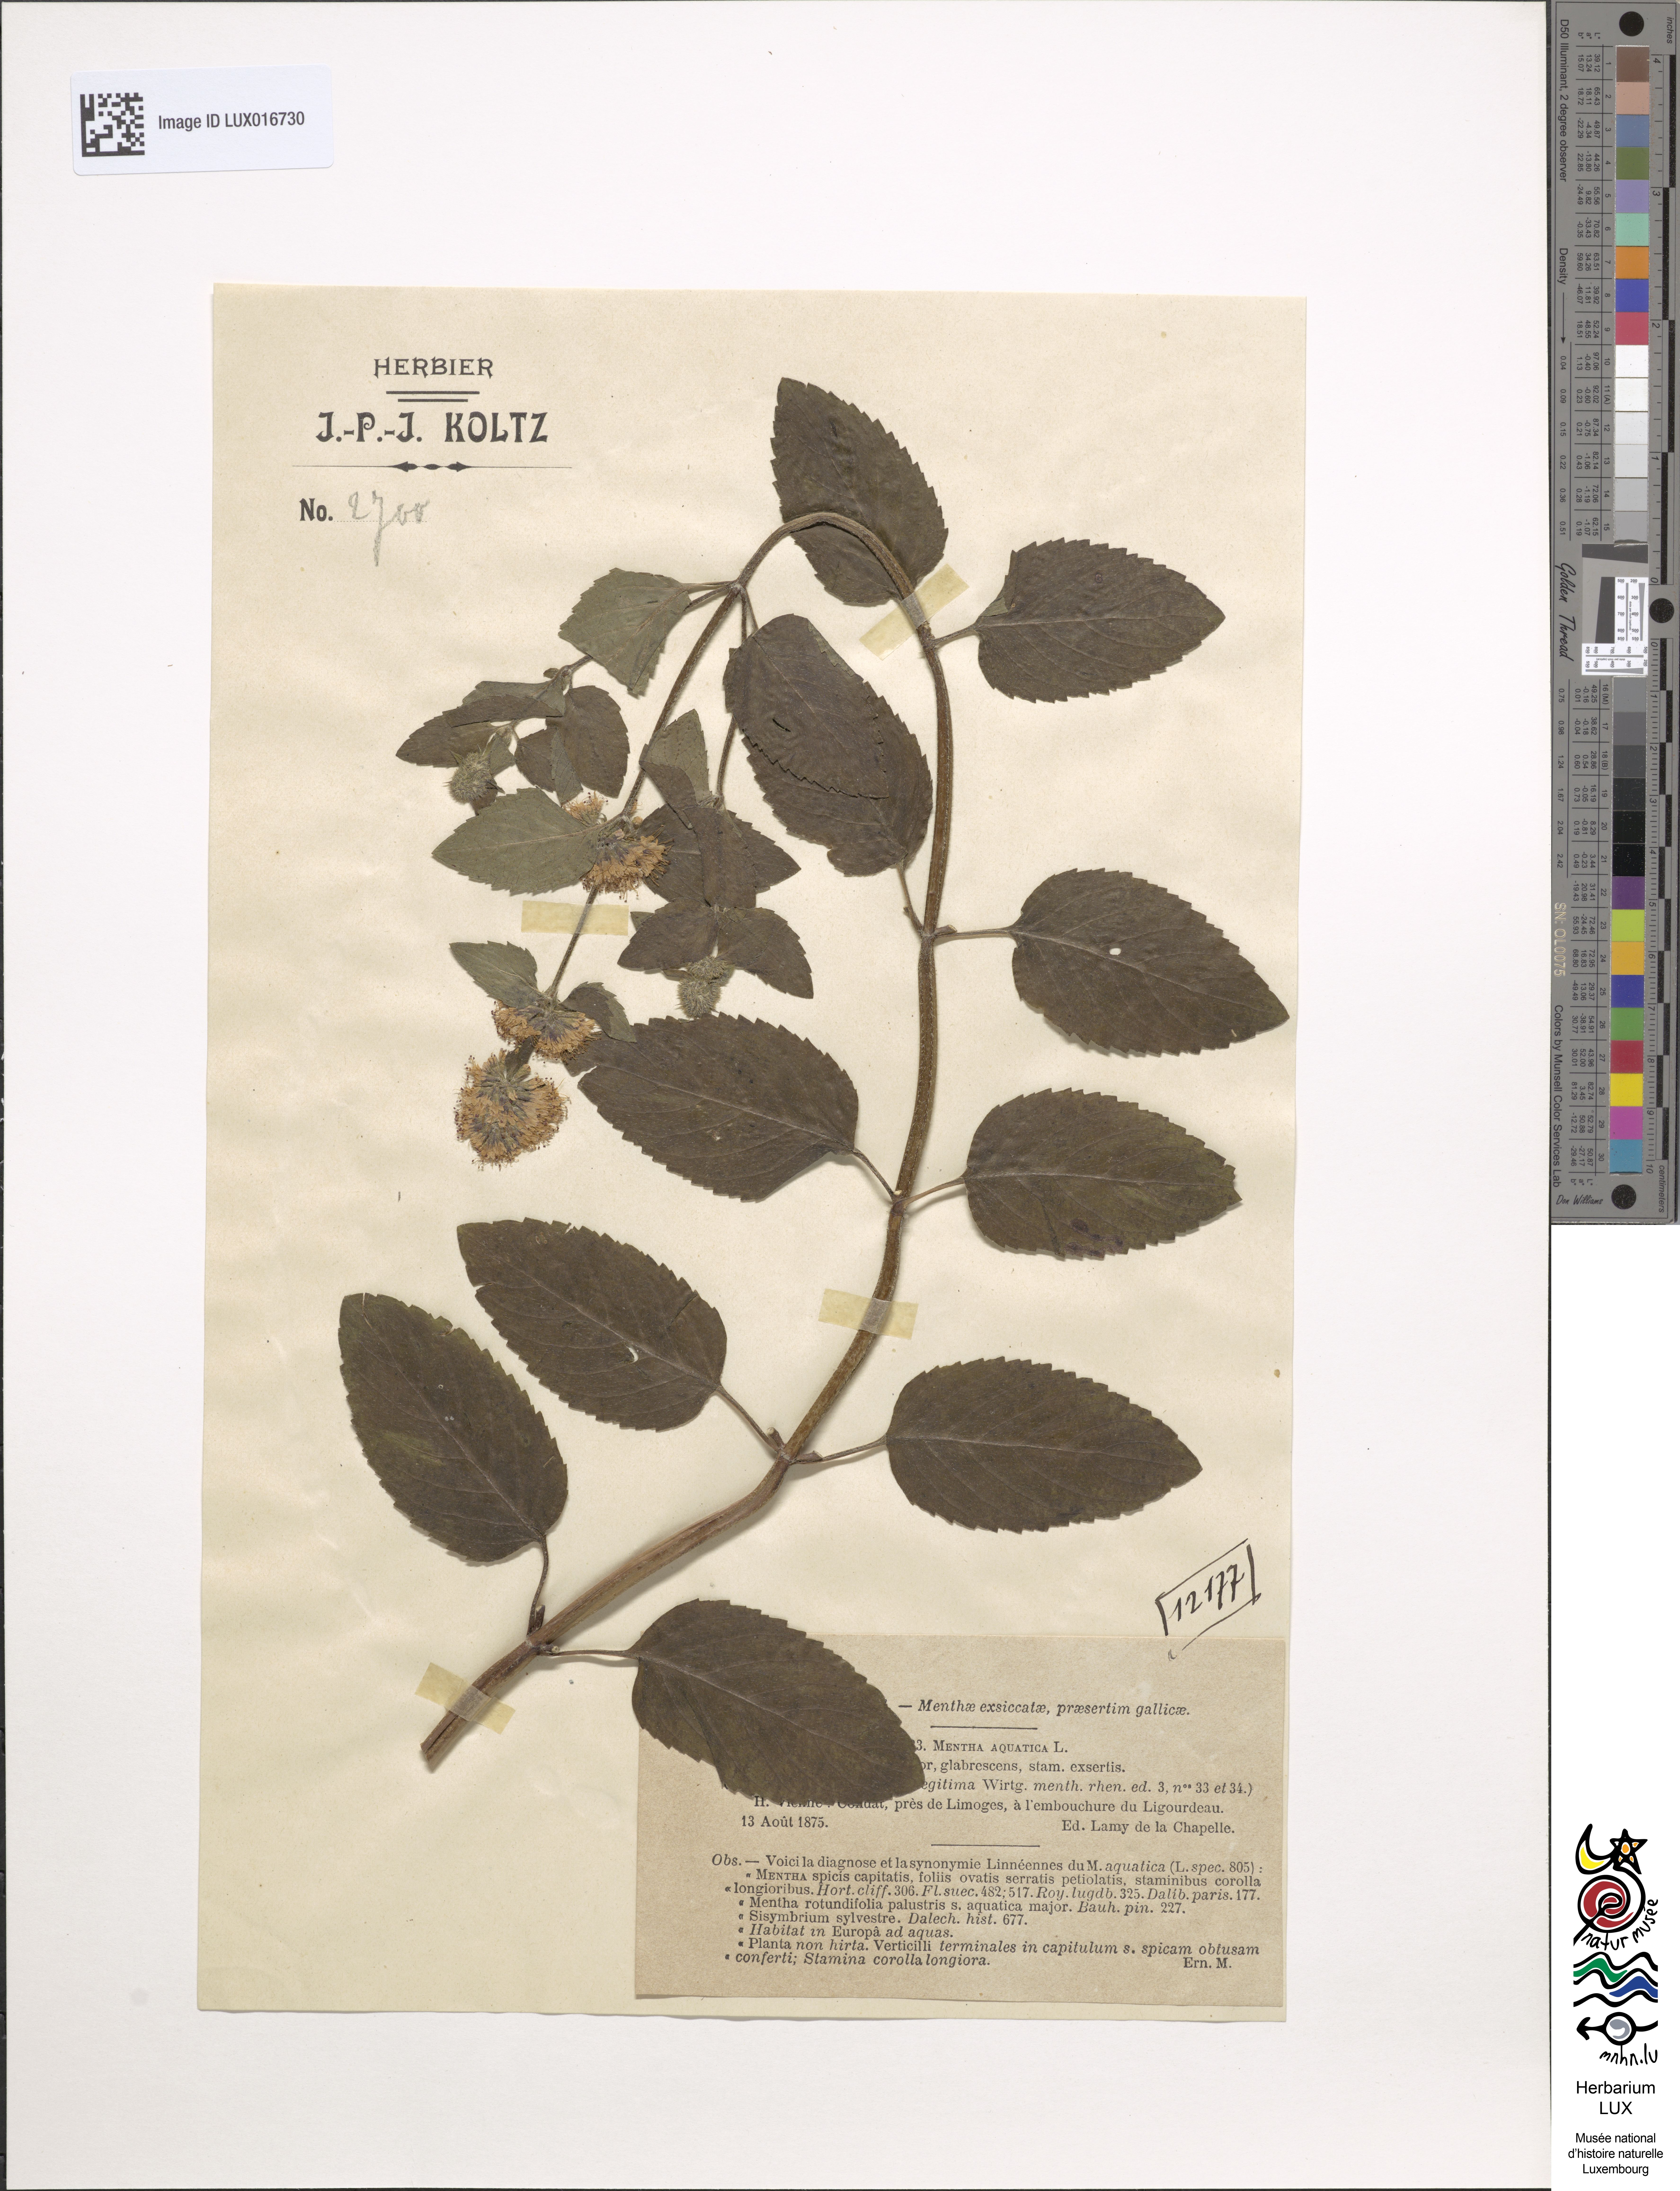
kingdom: Plantae
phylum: Tracheophyta
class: Magnoliopsida
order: Lamiales
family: Lamiaceae
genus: Mentha
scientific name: Mentha aquatica
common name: Water mint
